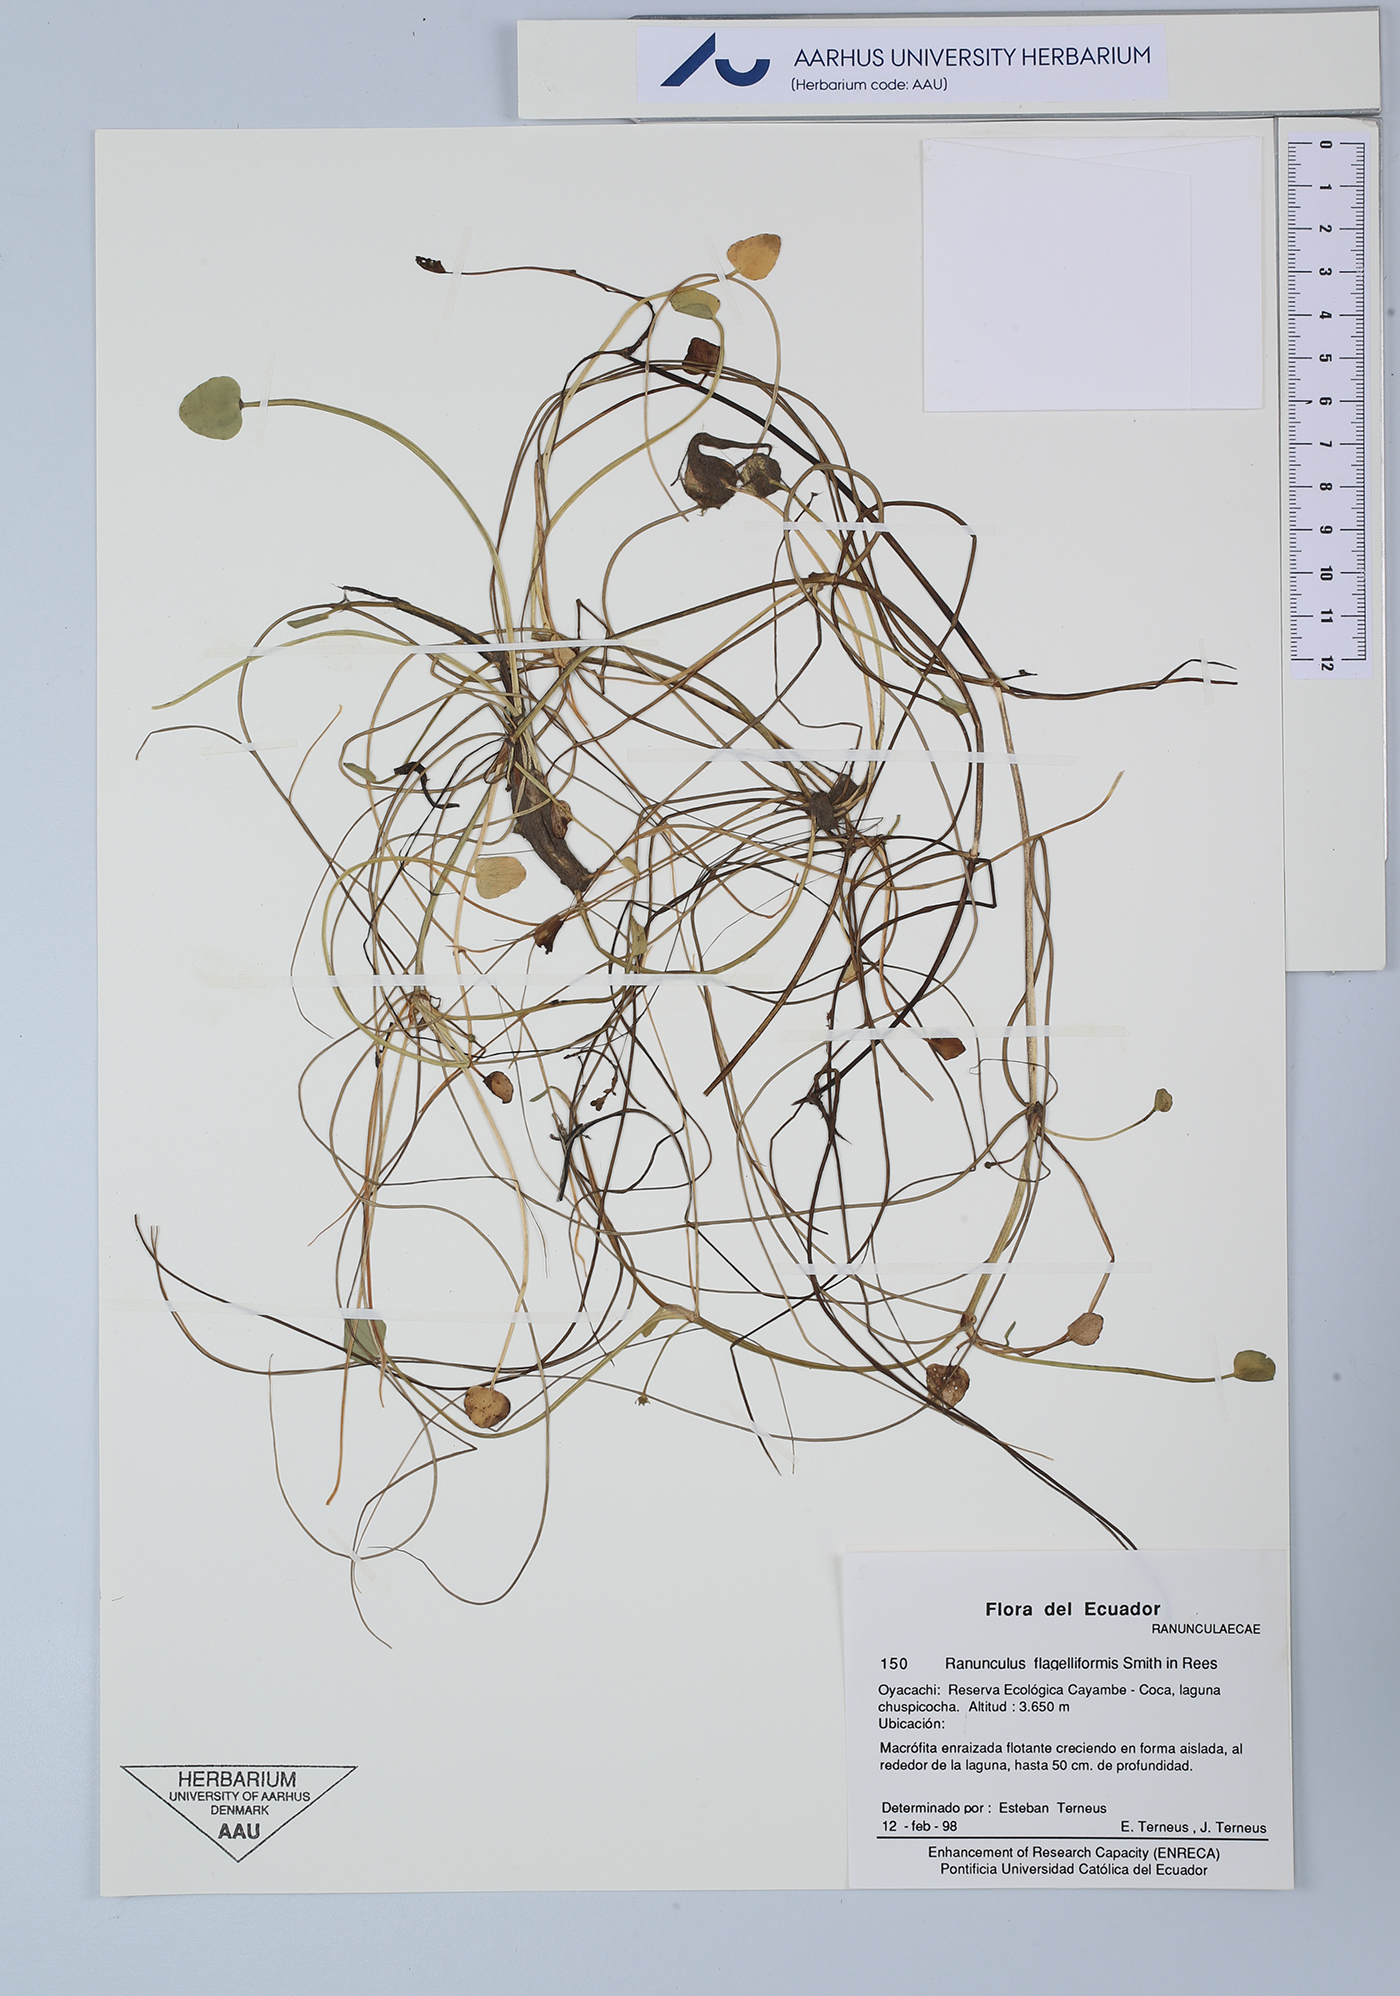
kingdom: Plantae
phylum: Tracheophyta
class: Magnoliopsida
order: Ranunculales
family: Ranunculaceae
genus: Ranunculus
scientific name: Ranunculus flagelliformis
